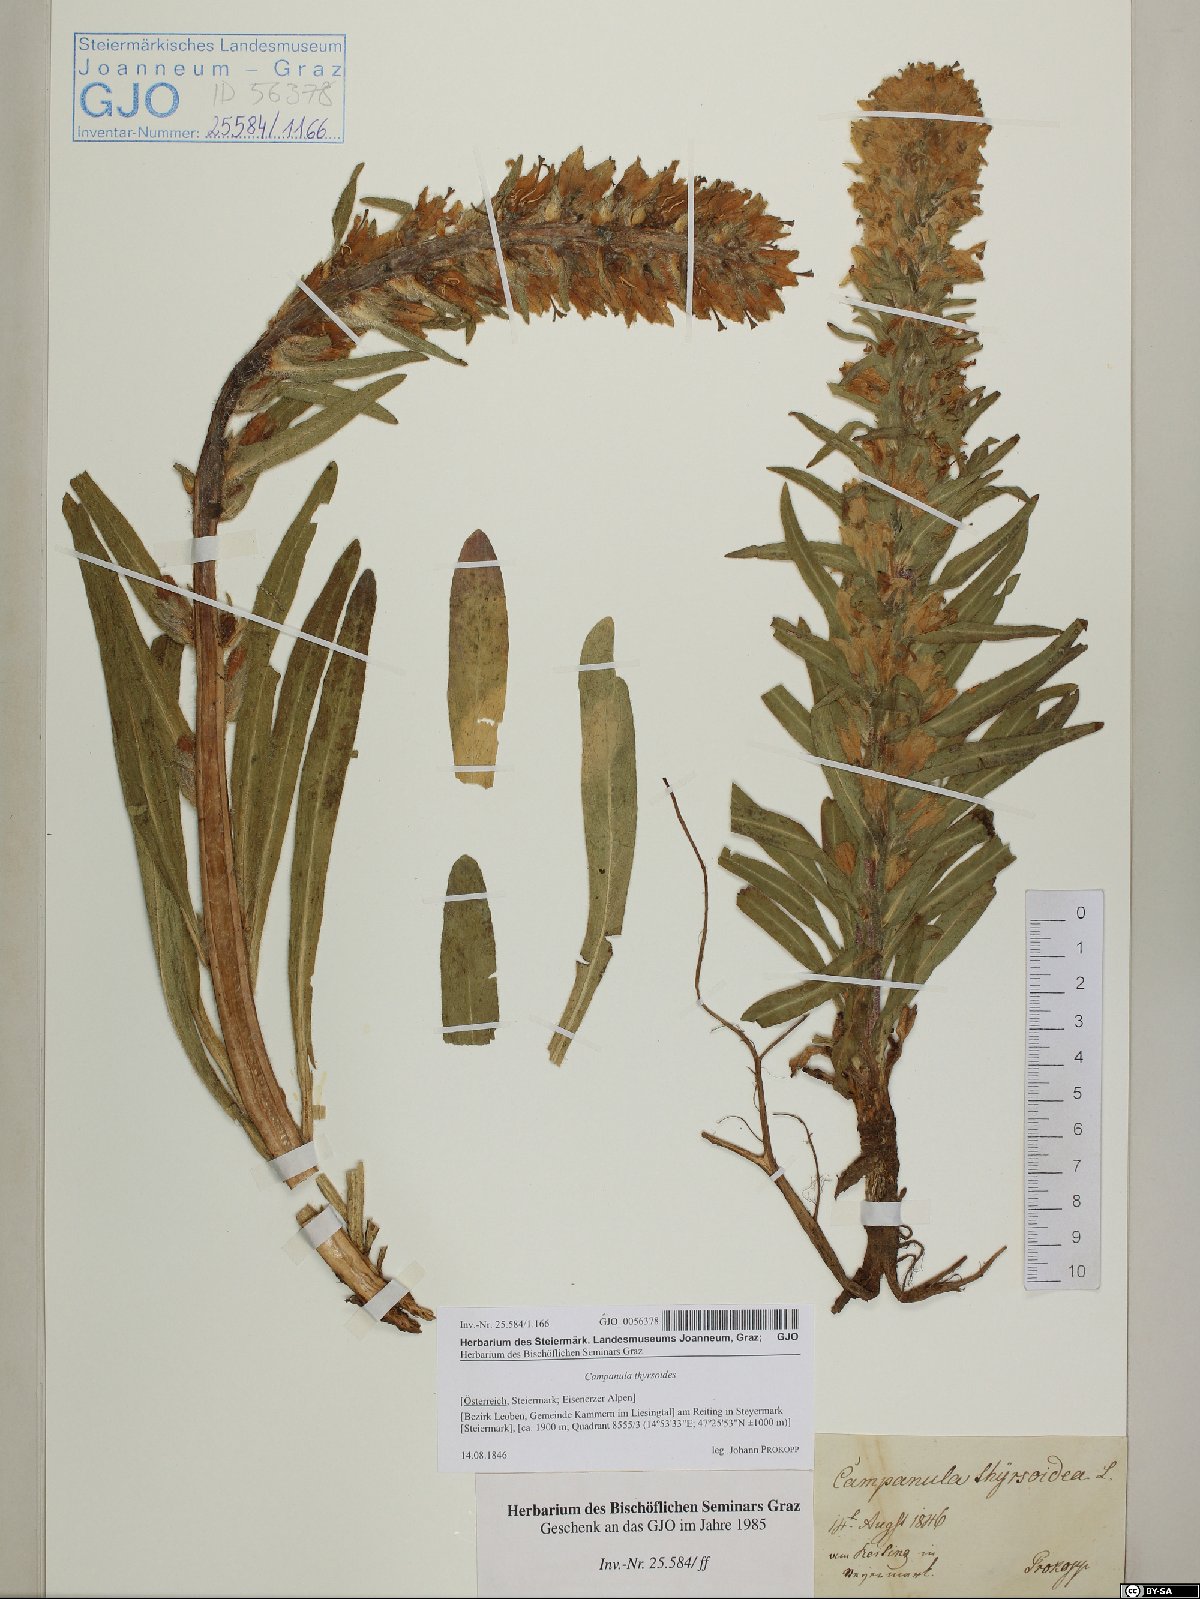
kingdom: Plantae
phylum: Tracheophyta
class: Magnoliopsida
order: Asterales
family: Campanulaceae
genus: Campanula
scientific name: Campanula thyrsoides
